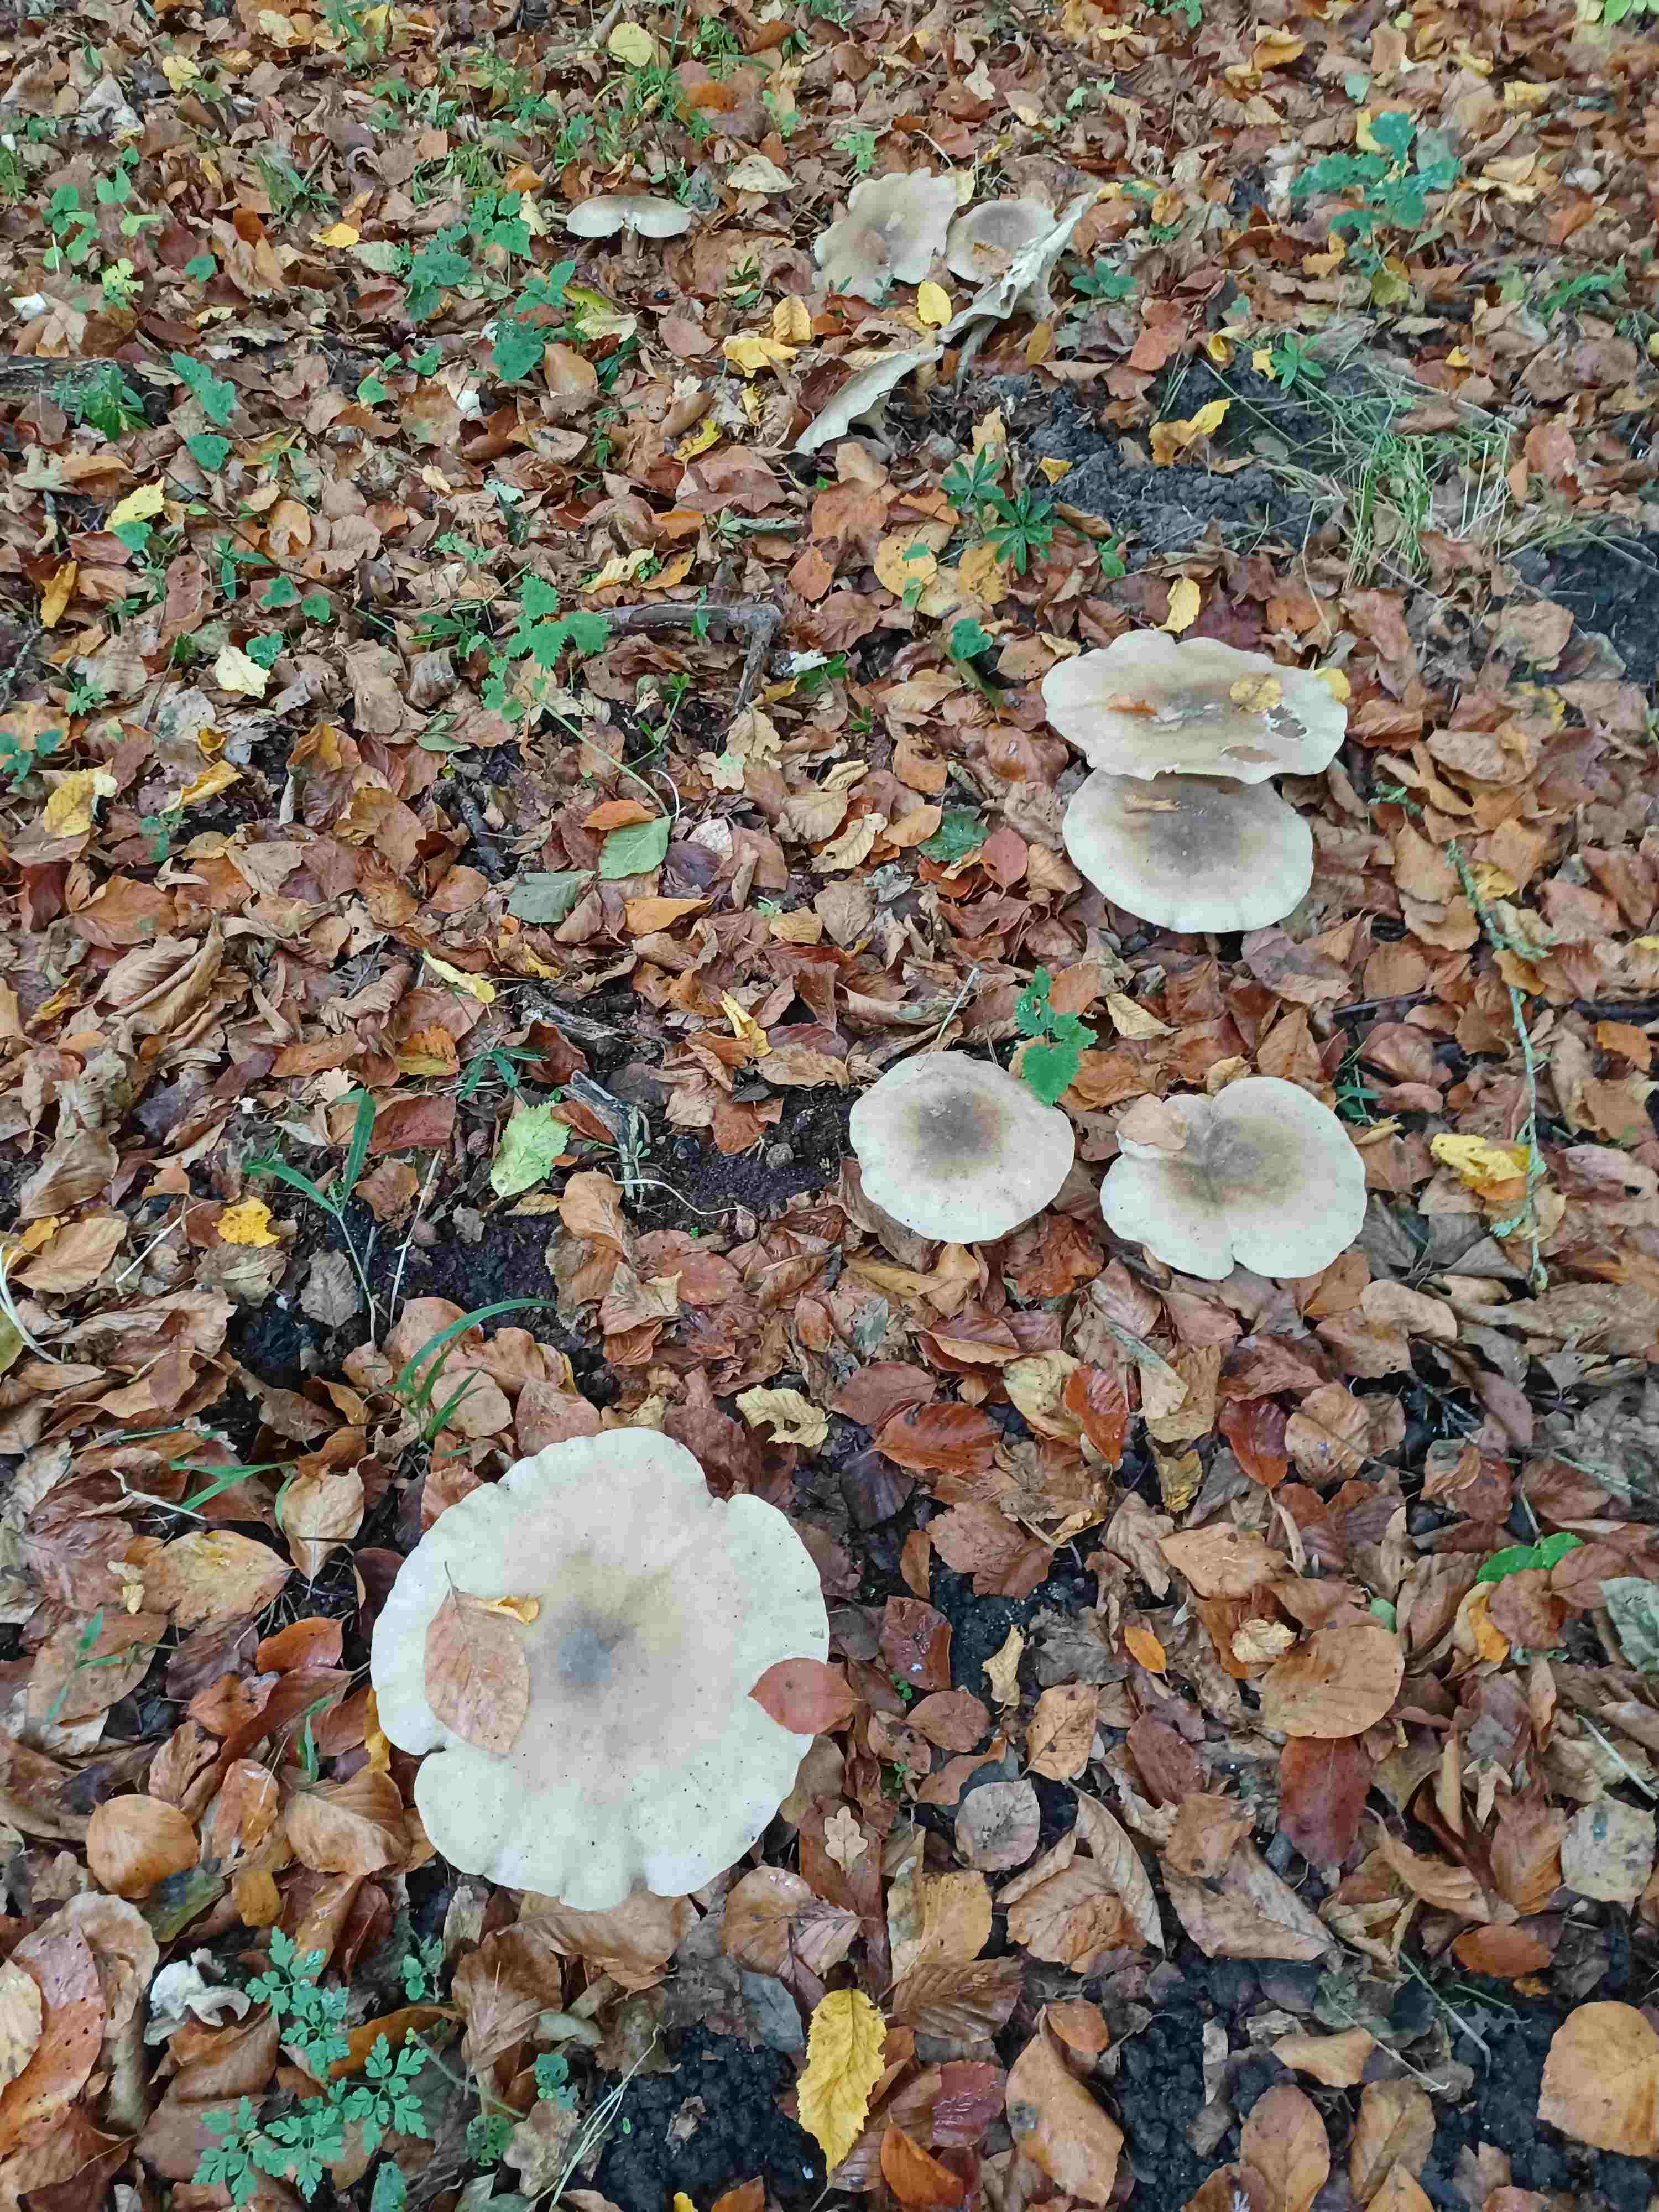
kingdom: Fungi
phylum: Basidiomycota
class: Agaricomycetes
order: Agaricales
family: Tricholomataceae
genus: Clitocybe
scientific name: Clitocybe nebularis
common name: tåge-tragthat
